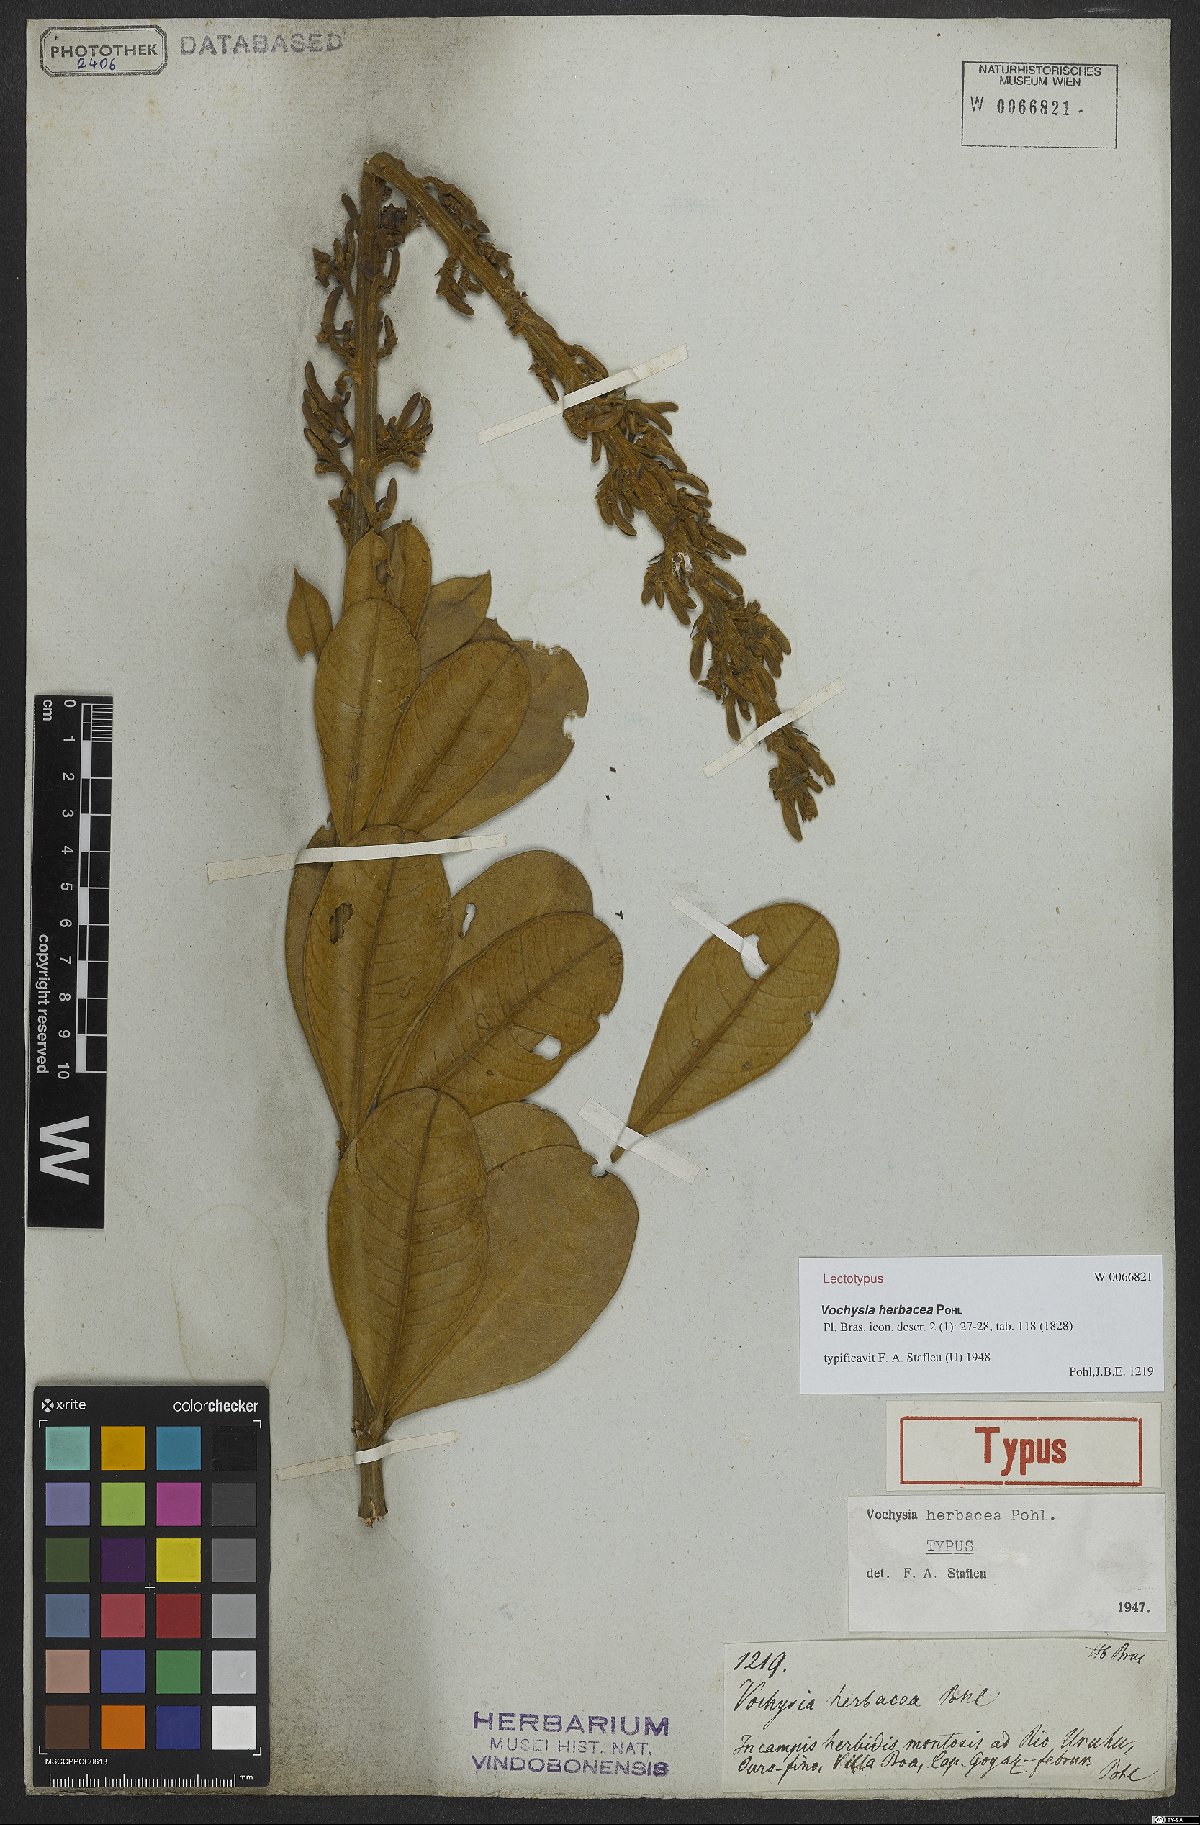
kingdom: Plantae
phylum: Tracheophyta
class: Magnoliopsida
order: Myrtales
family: Vochysiaceae
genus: Vochysia
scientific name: Vochysia herbacea
